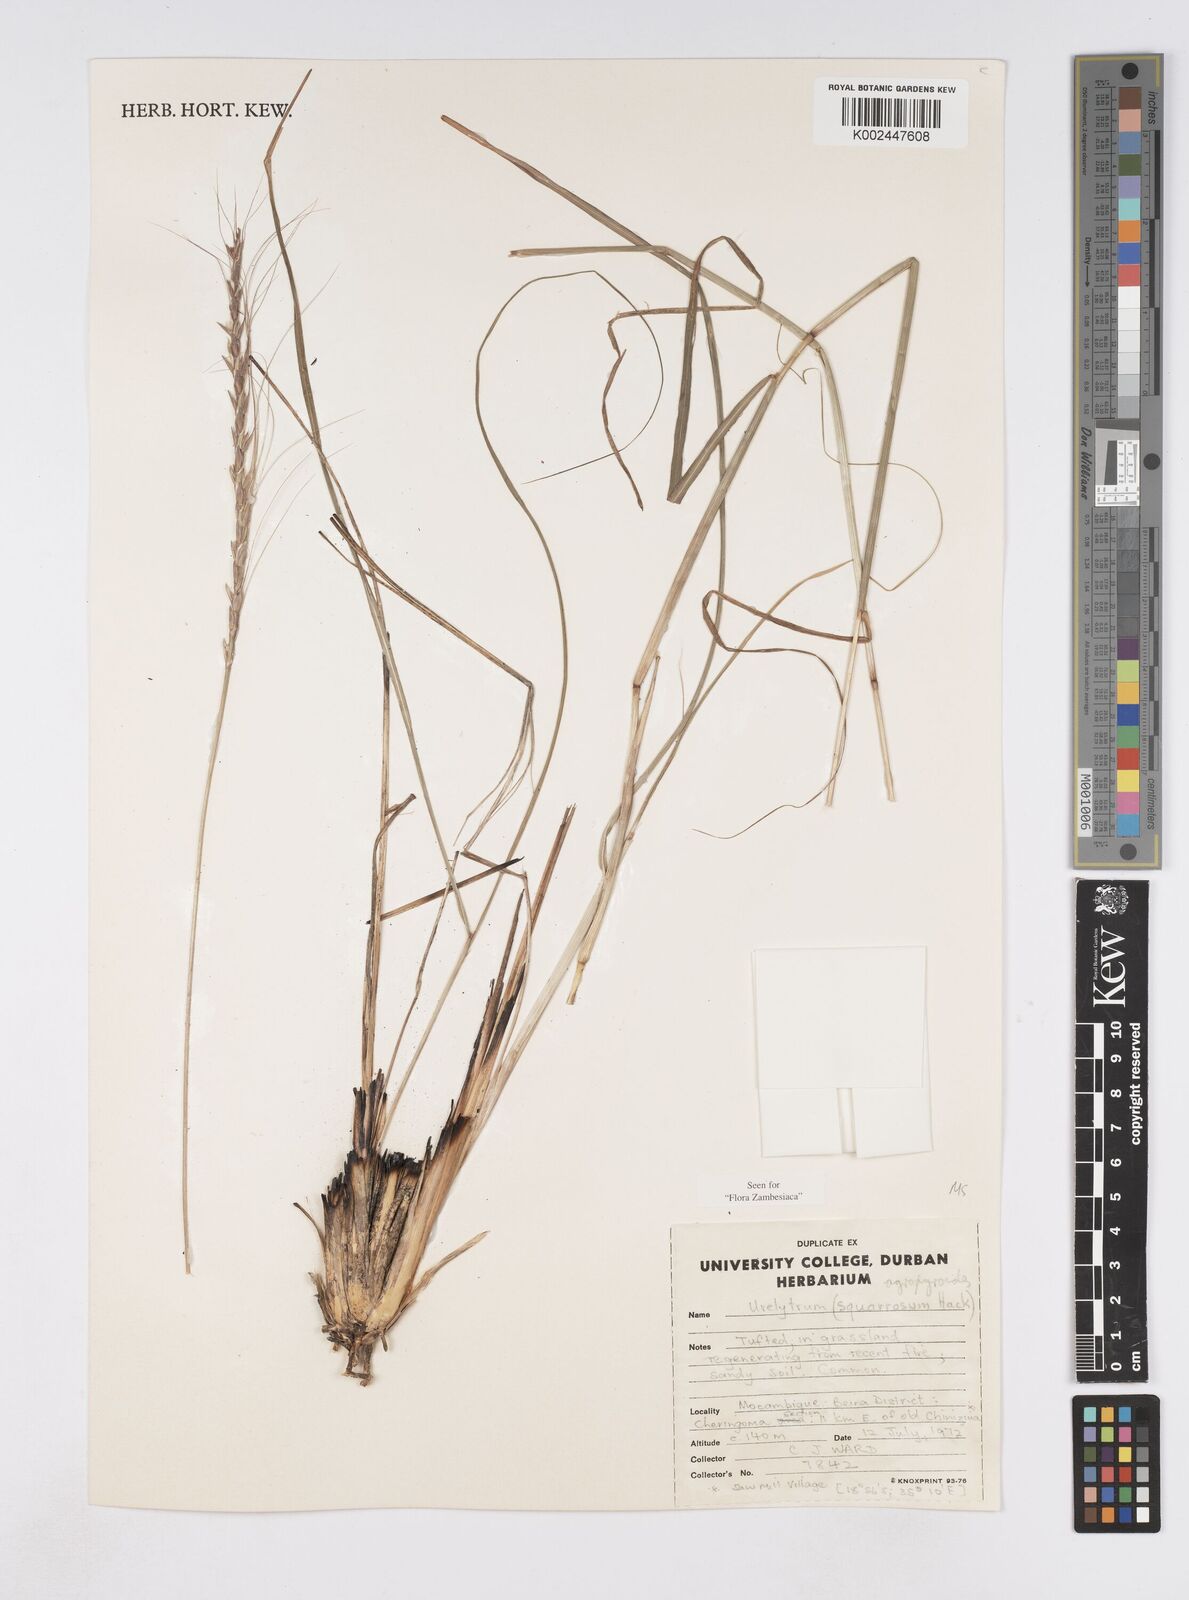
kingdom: Plantae
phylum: Tracheophyta
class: Liliopsida
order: Poales
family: Poaceae
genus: Urelytrum
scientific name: Urelytrum agropyroides
